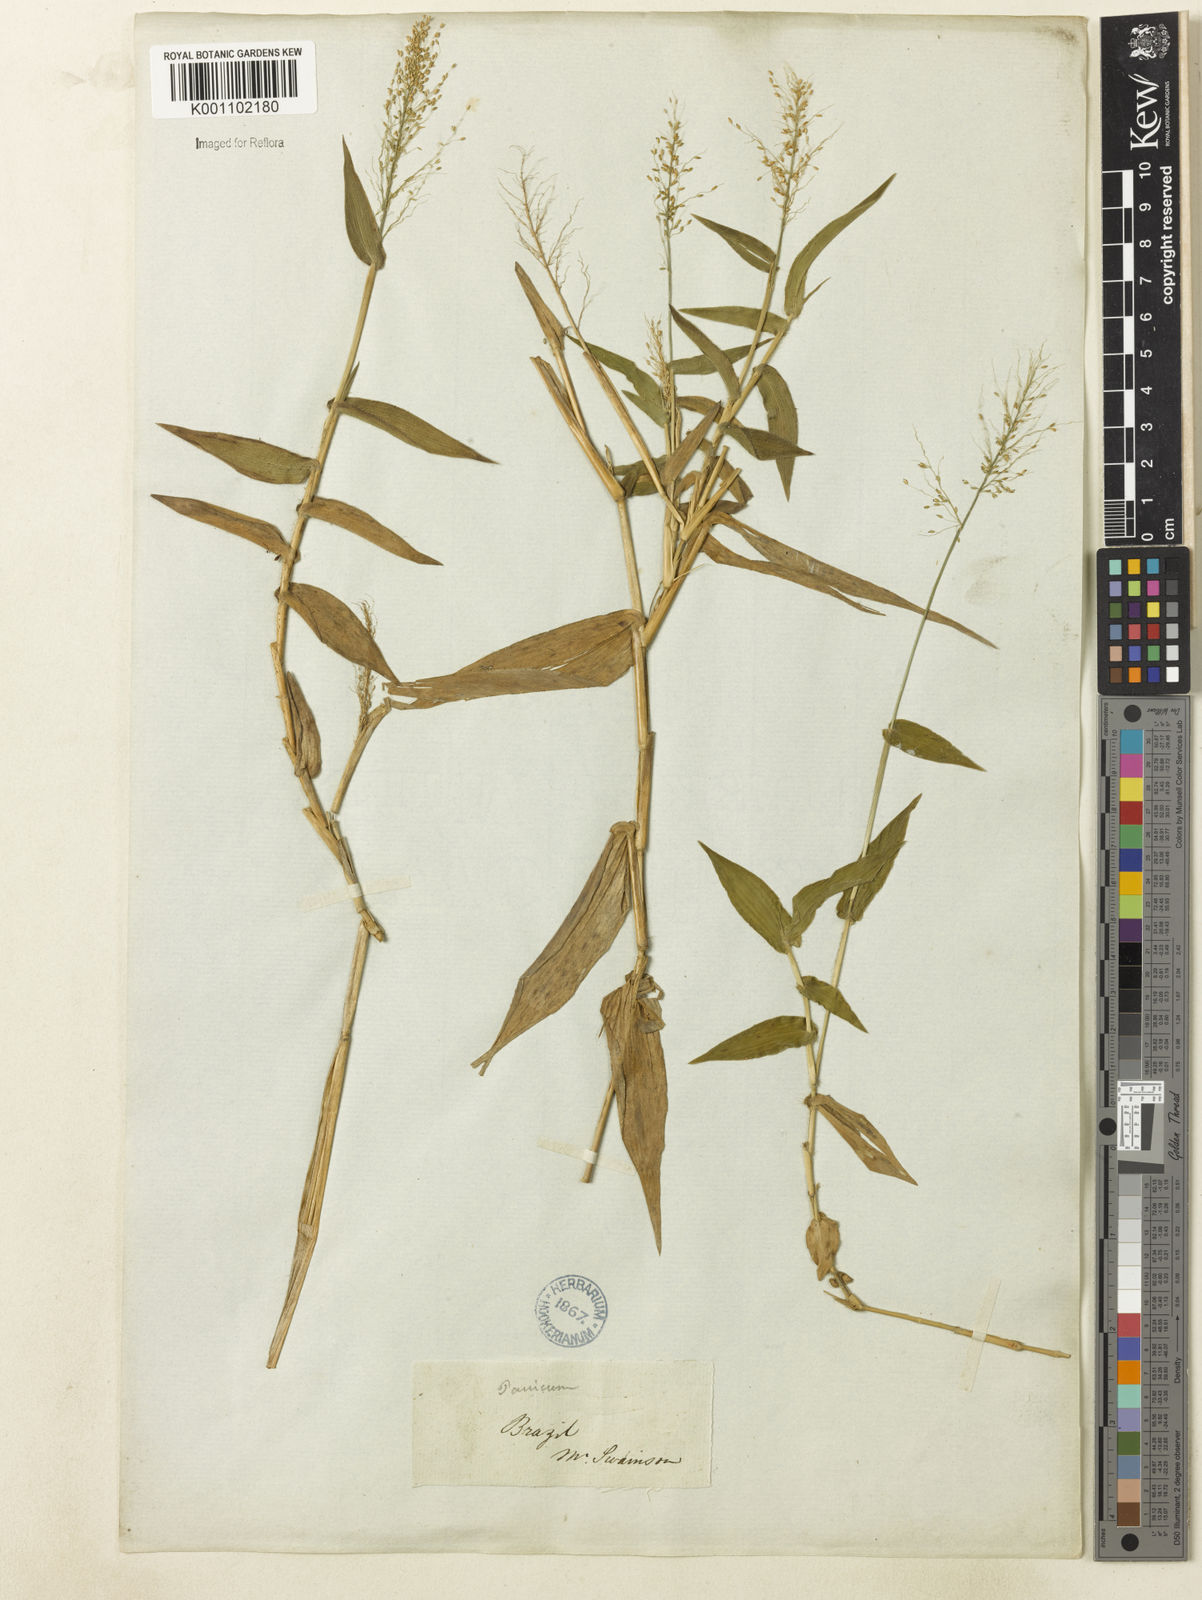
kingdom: Plantae
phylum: Tracheophyta
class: Liliopsida
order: Poales
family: Poaceae
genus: Dichanthelium
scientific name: Dichanthelium sciurotoides
